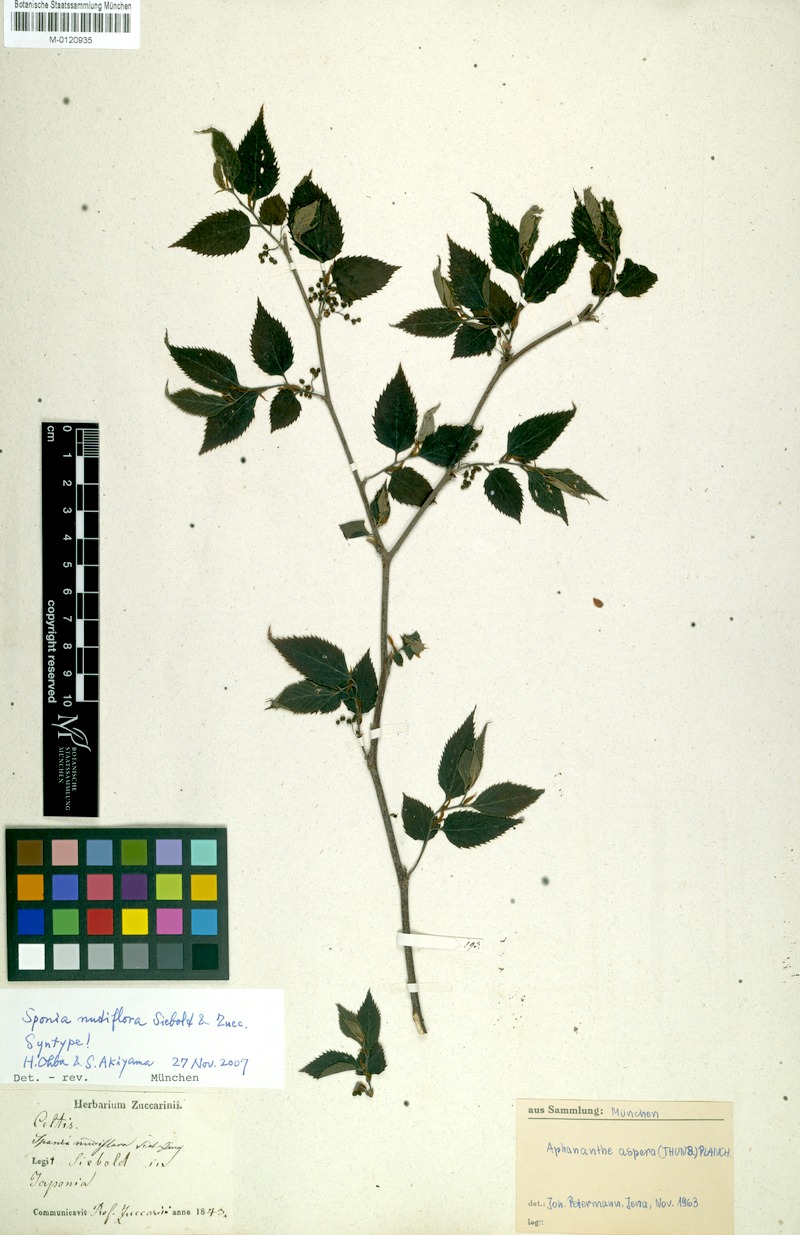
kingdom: Plantae
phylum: Tracheophyta
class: Magnoliopsida
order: Rosales
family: Cannabaceae
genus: Aphananthe
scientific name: Aphananthe aspera
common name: Mukutree
